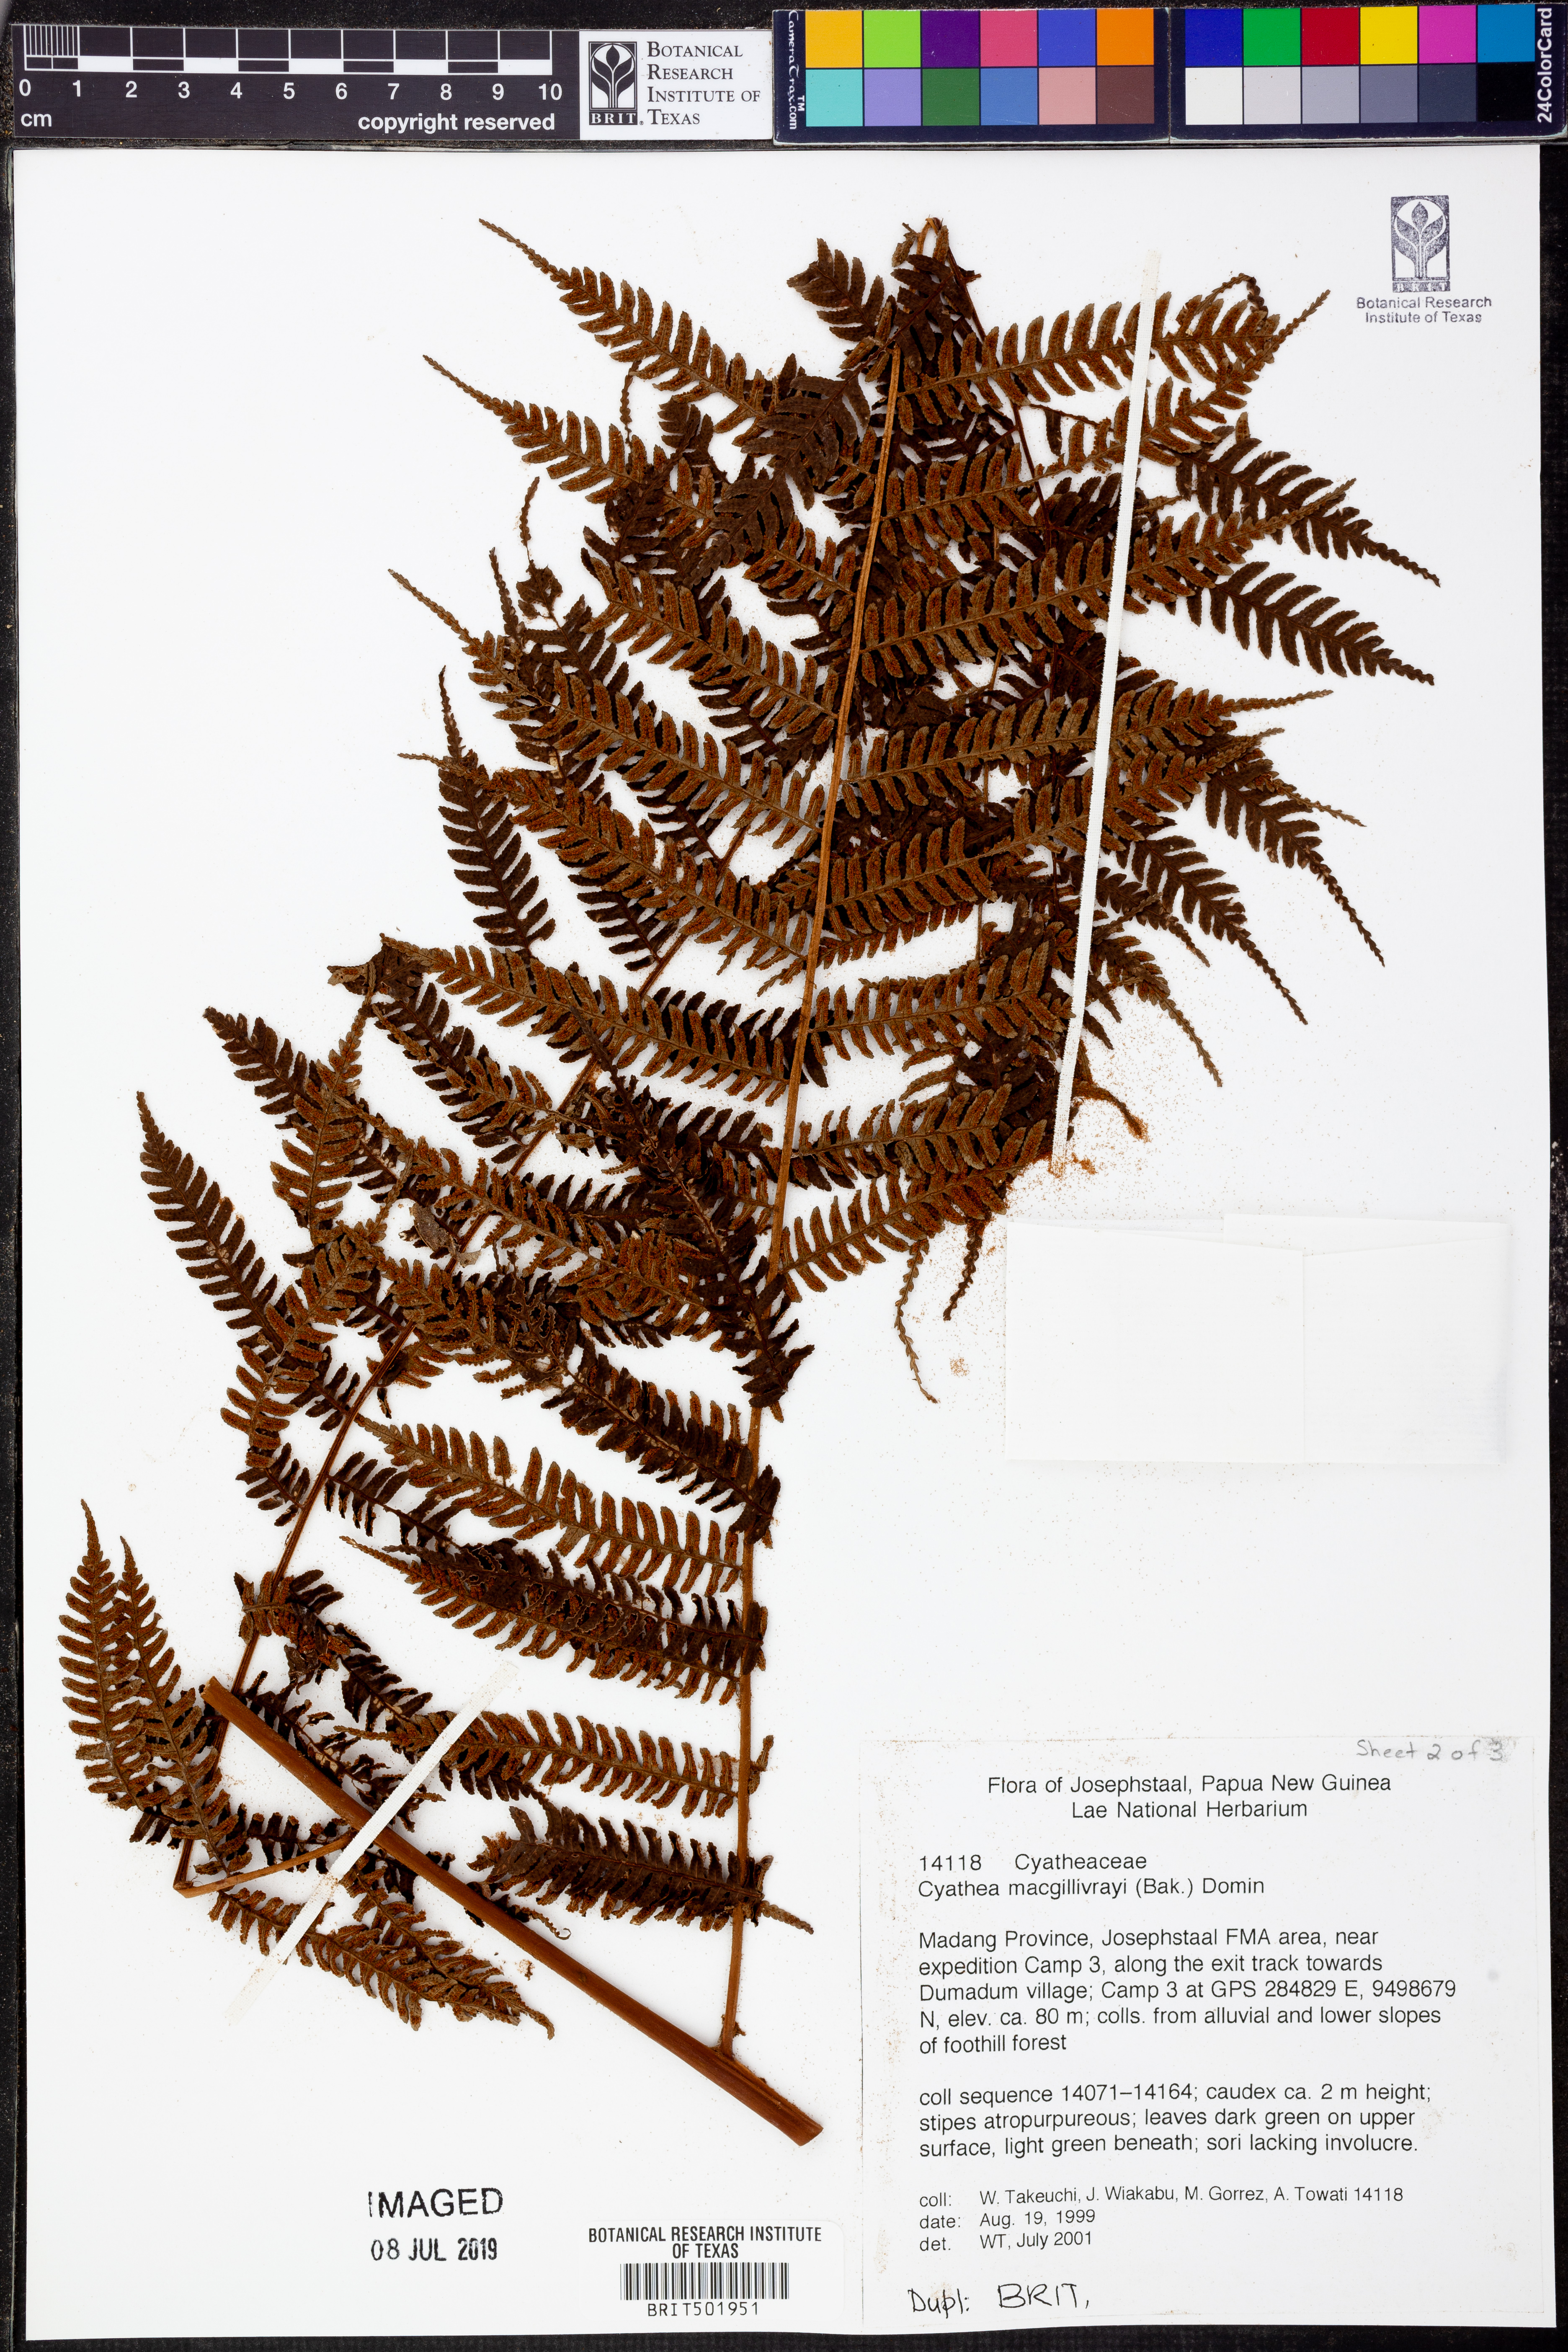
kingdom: Plantae
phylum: Tracheophyta
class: Polypodiopsida
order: Cyatheales
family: Cyatheaceae
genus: Alsophila
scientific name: Alsophila macgillivrayi
